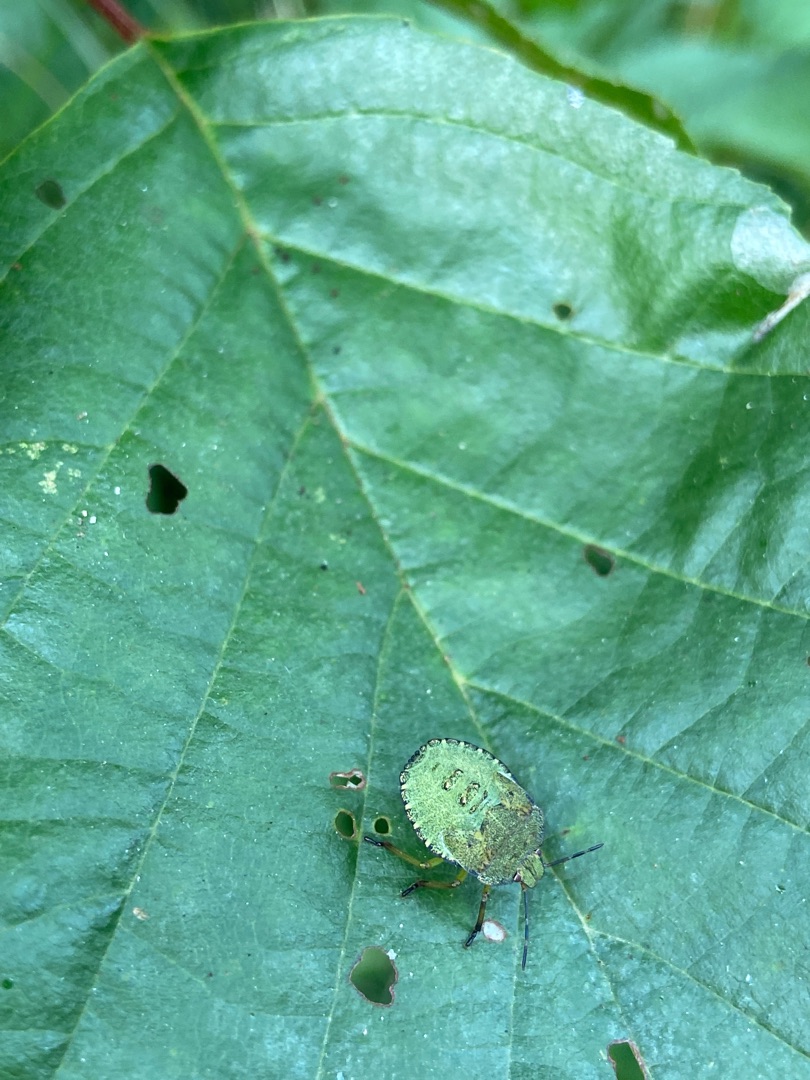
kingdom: Animalia
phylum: Arthropoda
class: Insecta
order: Hemiptera
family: Pentatomidae
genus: Palomena
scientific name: Palomena prasina
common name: Grøn bredtæge
